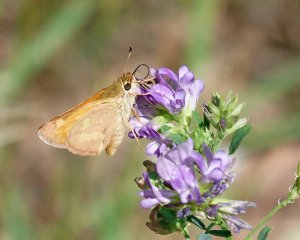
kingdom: Animalia
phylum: Arthropoda
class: Insecta
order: Lepidoptera
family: Hesperiidae
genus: Ochlodes
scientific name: Ochlodes sylvanoides
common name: Woodland Skipper
